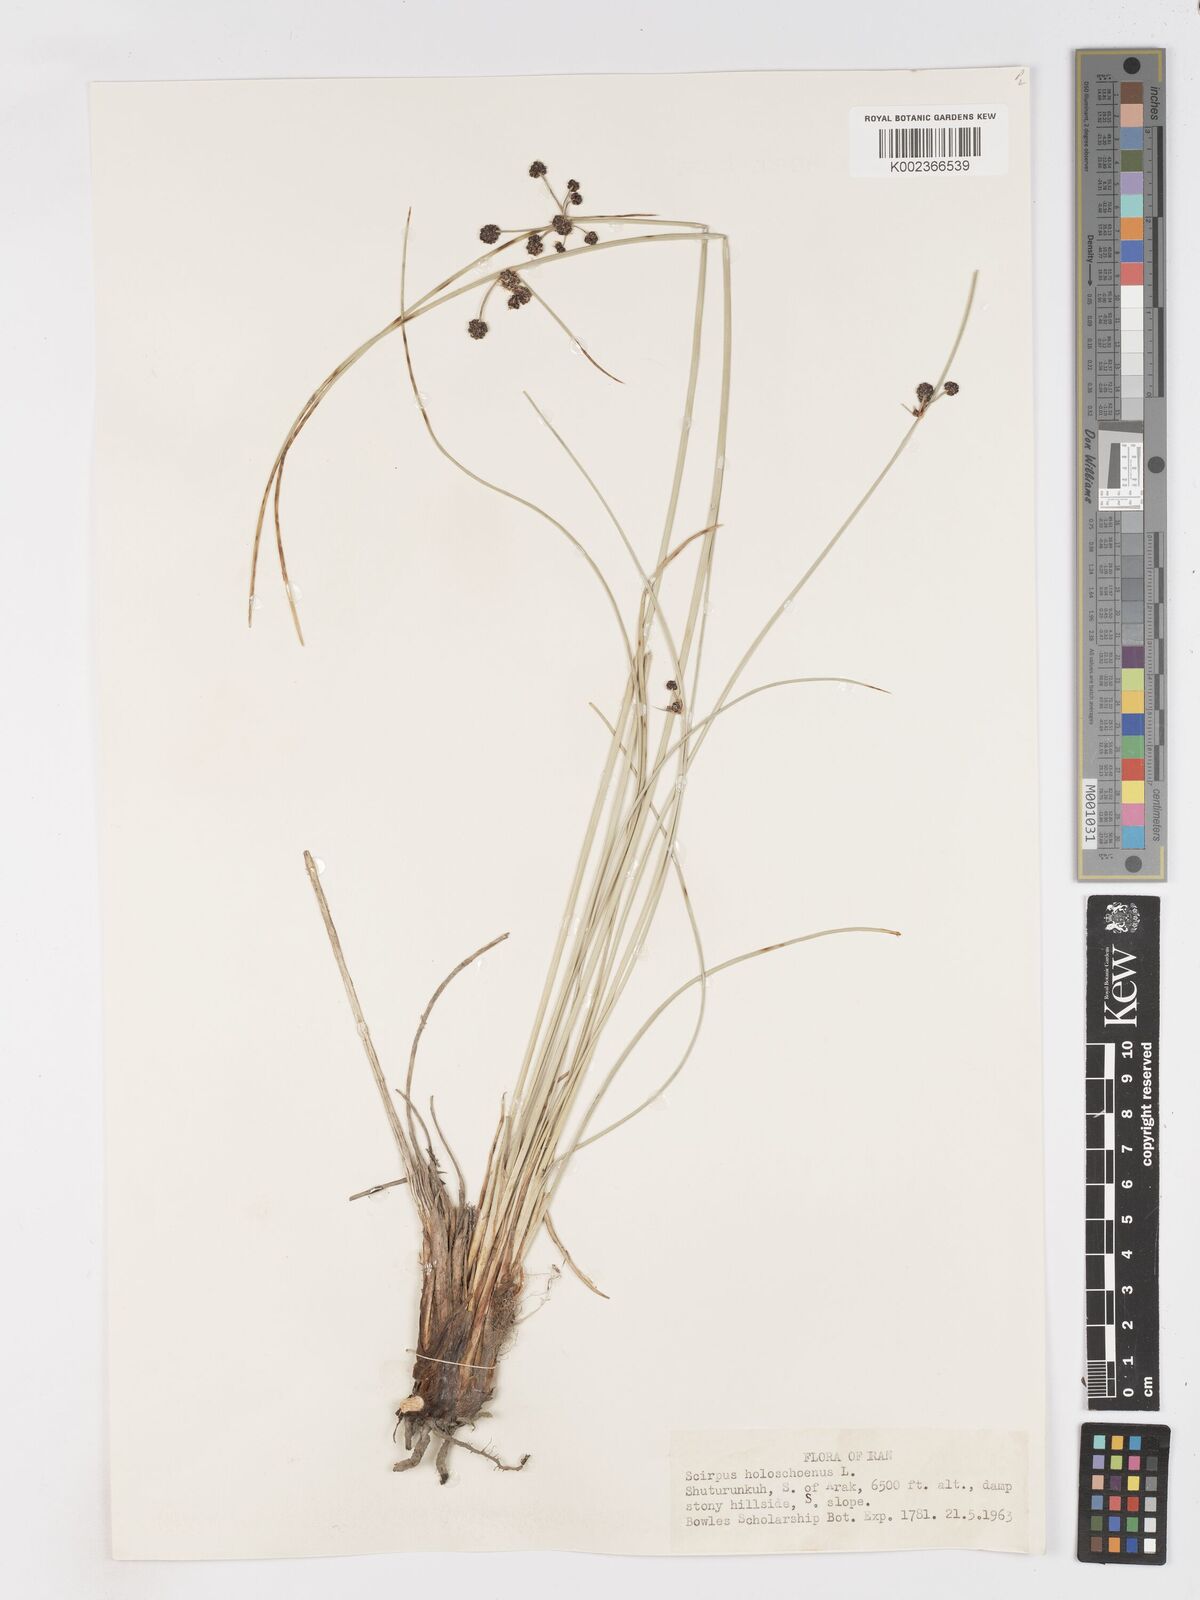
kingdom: Plantae
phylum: Tracheophyta
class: Liliopsida
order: Poales
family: Cyperaceae
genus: Scirpoides
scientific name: Scirpoides holoschoenus
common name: Round-headed club-rush
